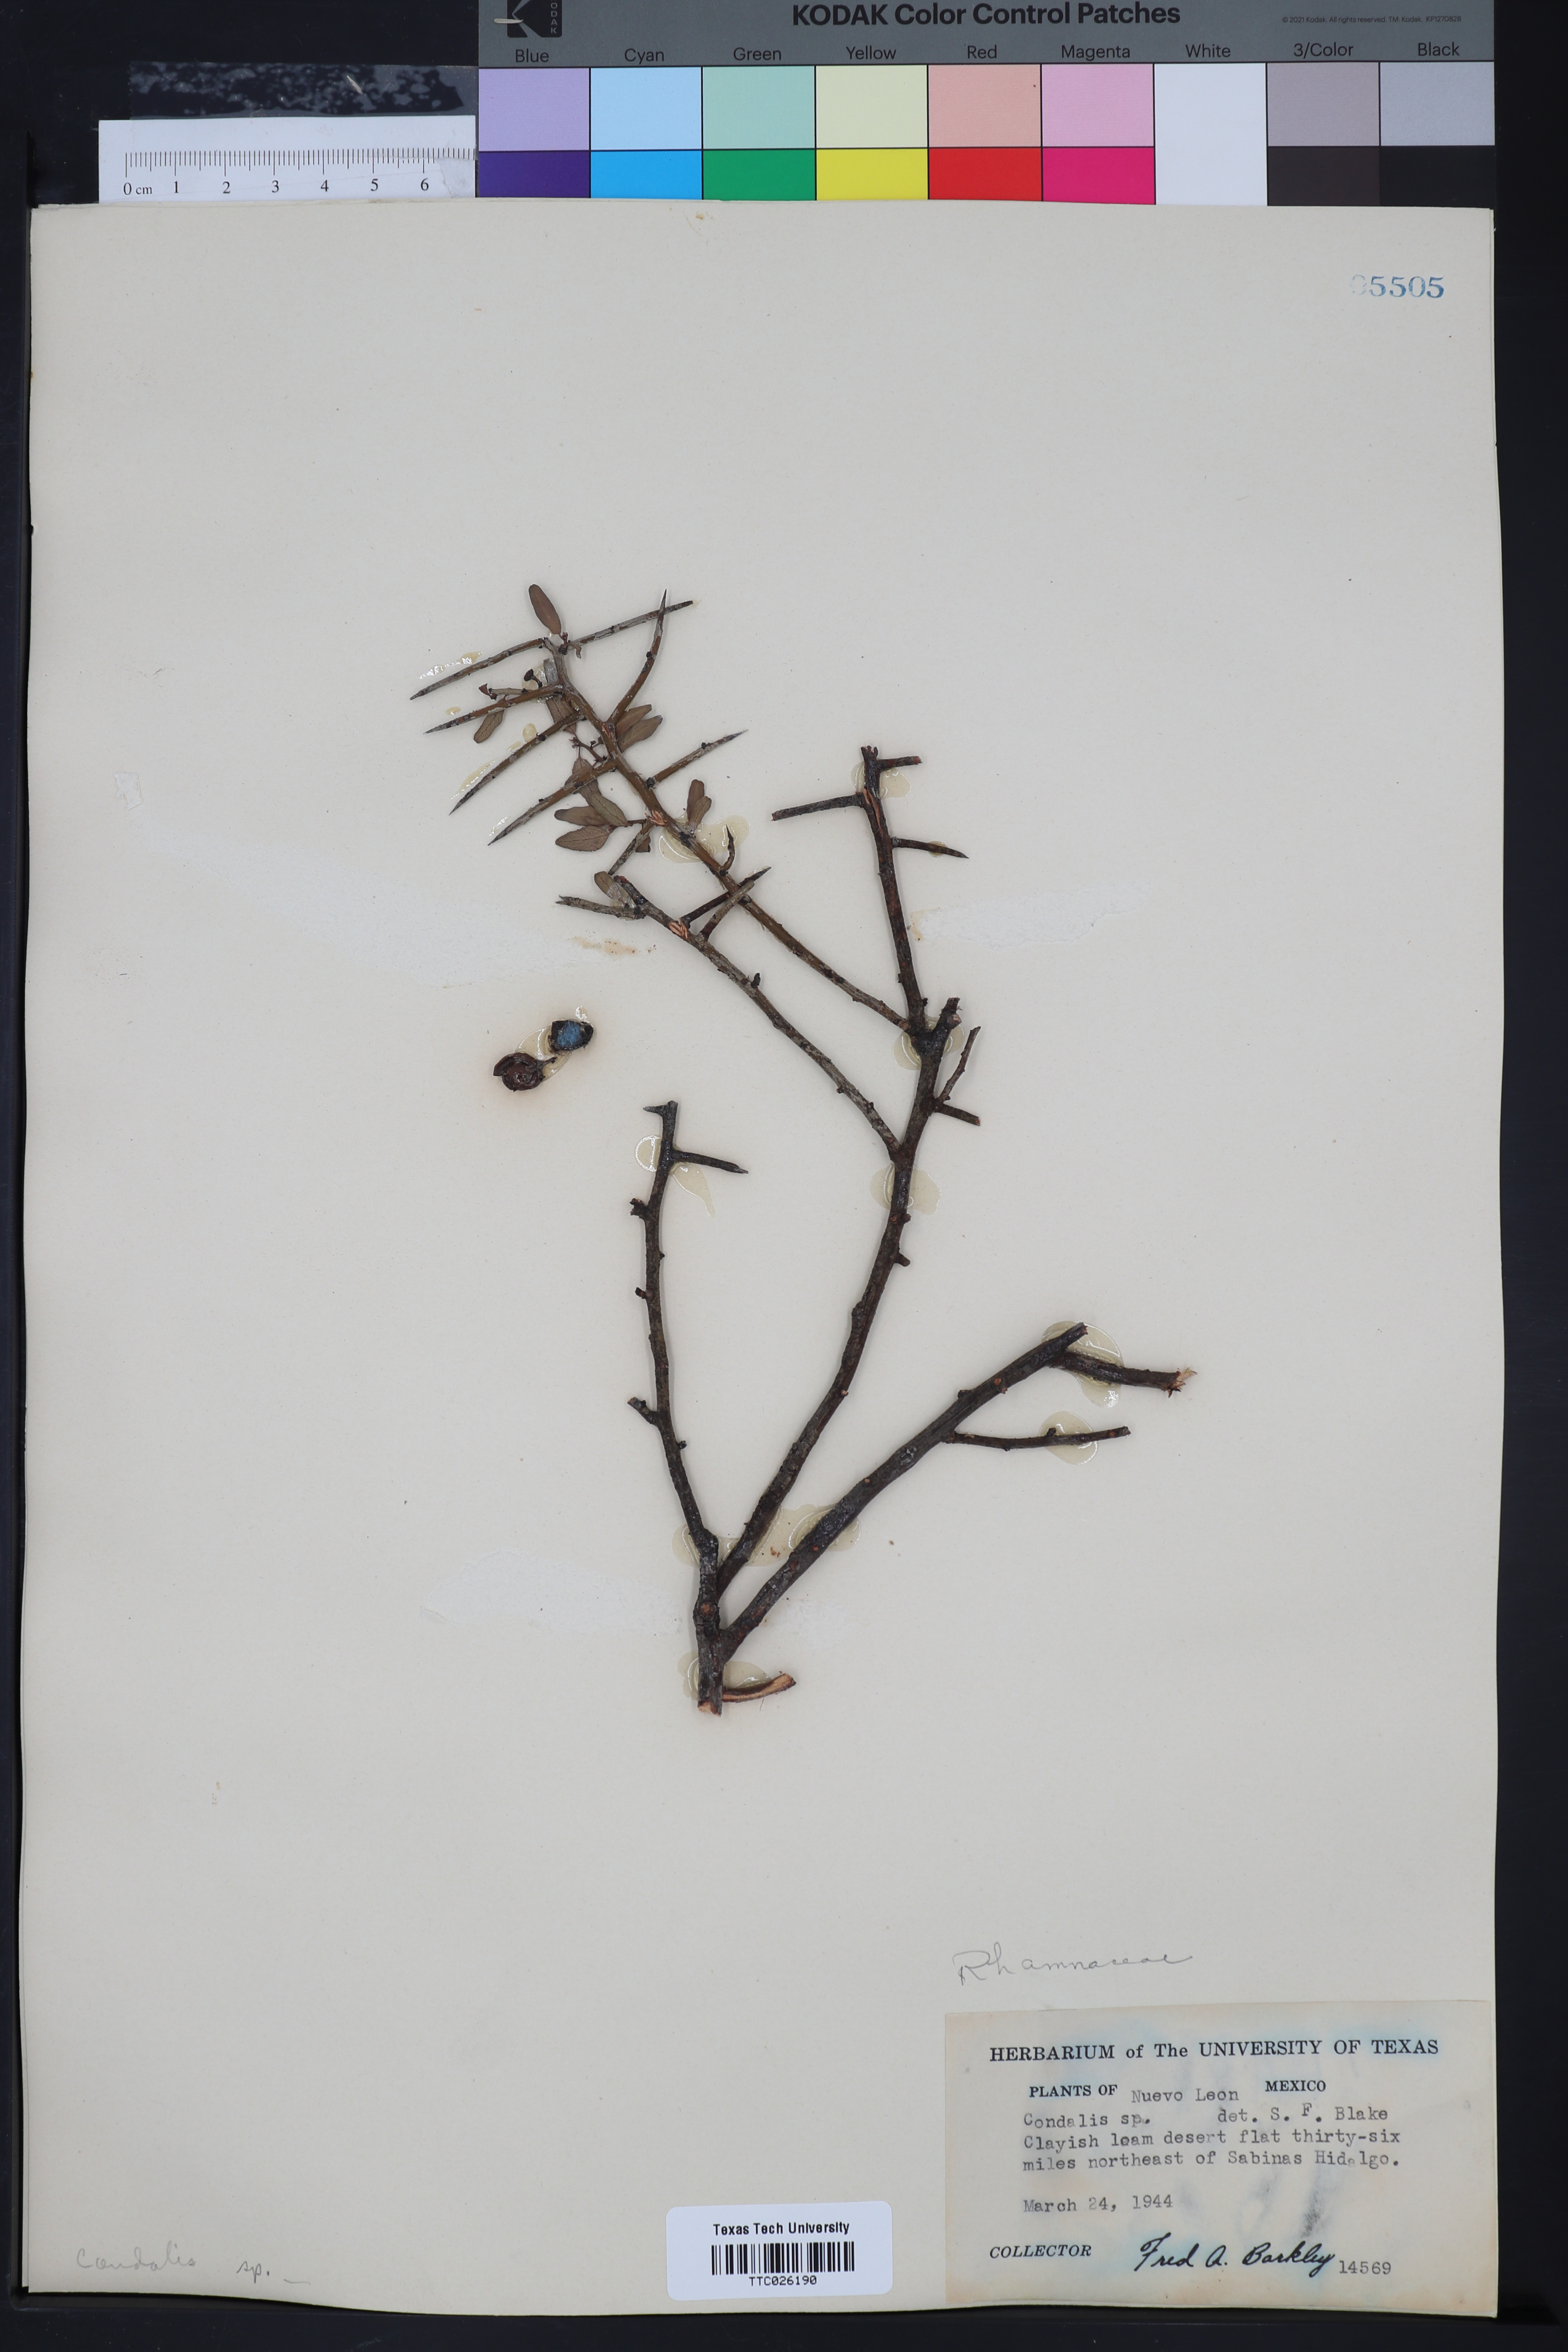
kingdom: Plantae
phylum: Tracheophyta
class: Magnoliopsida
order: Rosales
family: Rhamnaceae
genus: Condalia
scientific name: Condalia
